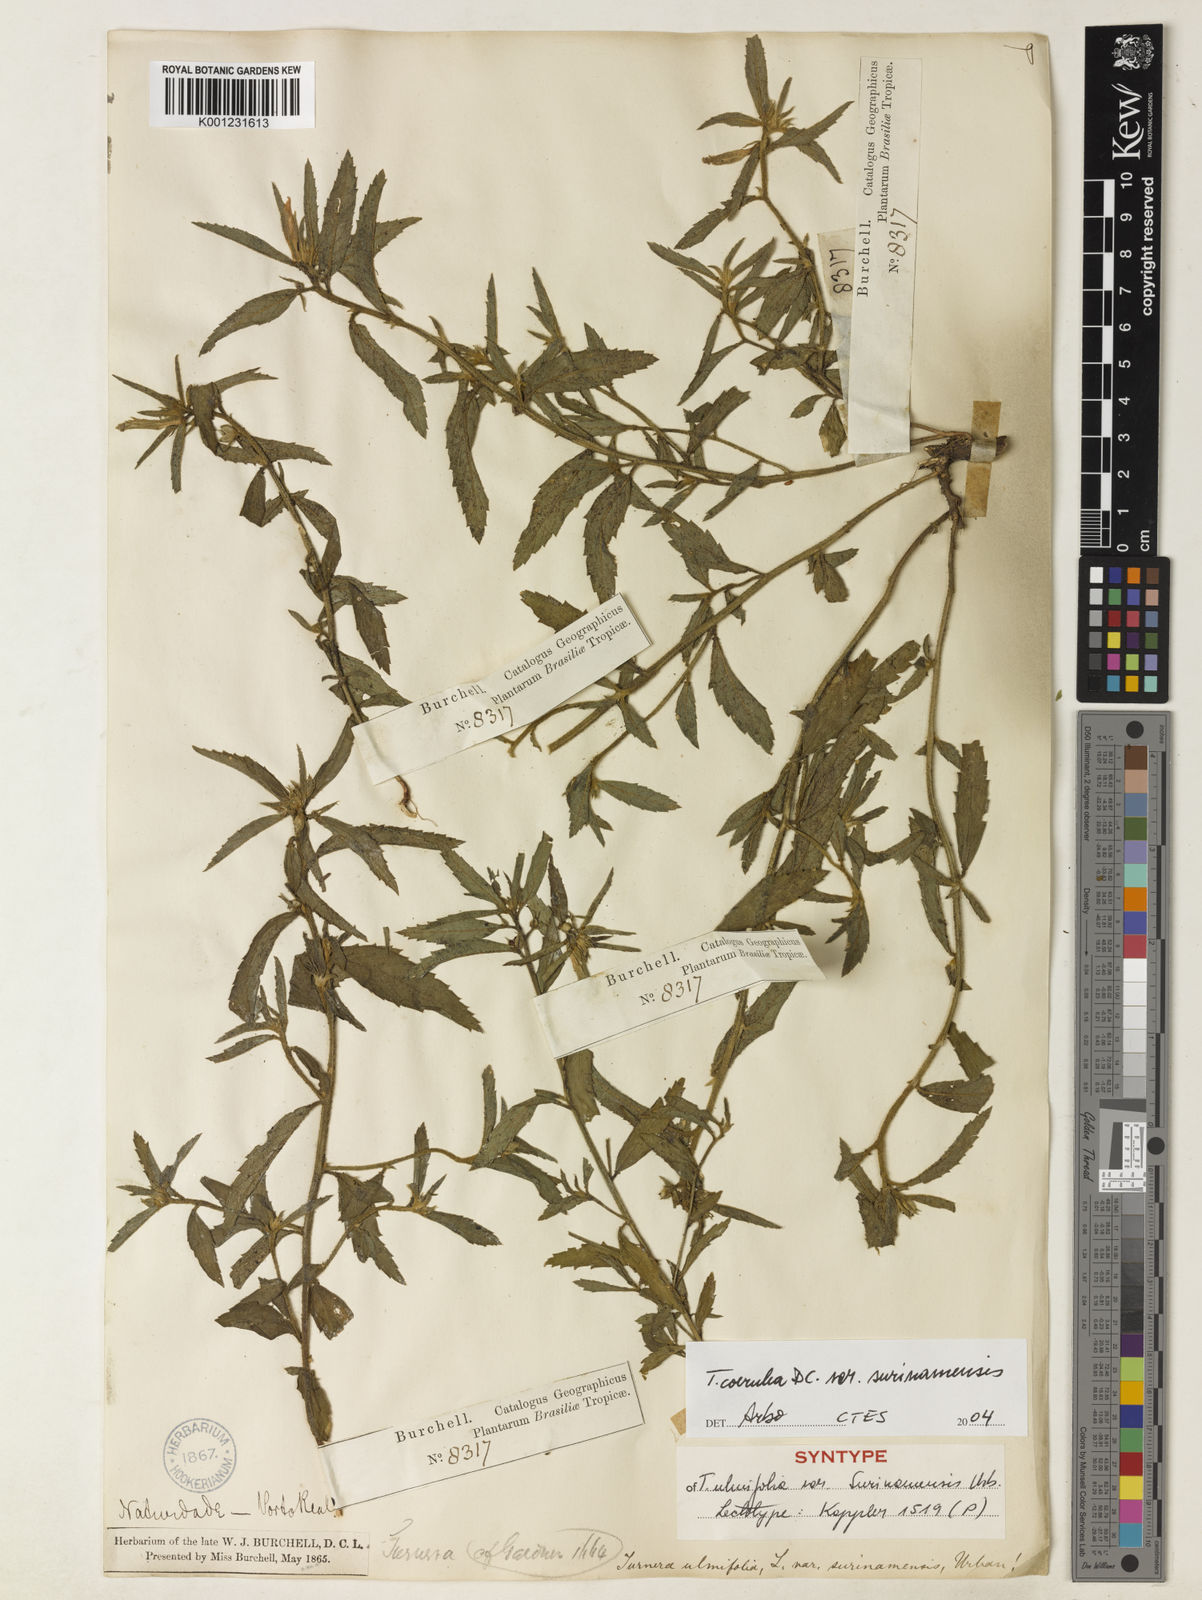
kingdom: Plantae
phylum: Tracheophyta
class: Magnoliopsida
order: Malpighiales
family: Turneraceae
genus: Turnera
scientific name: Turnera coerulea
